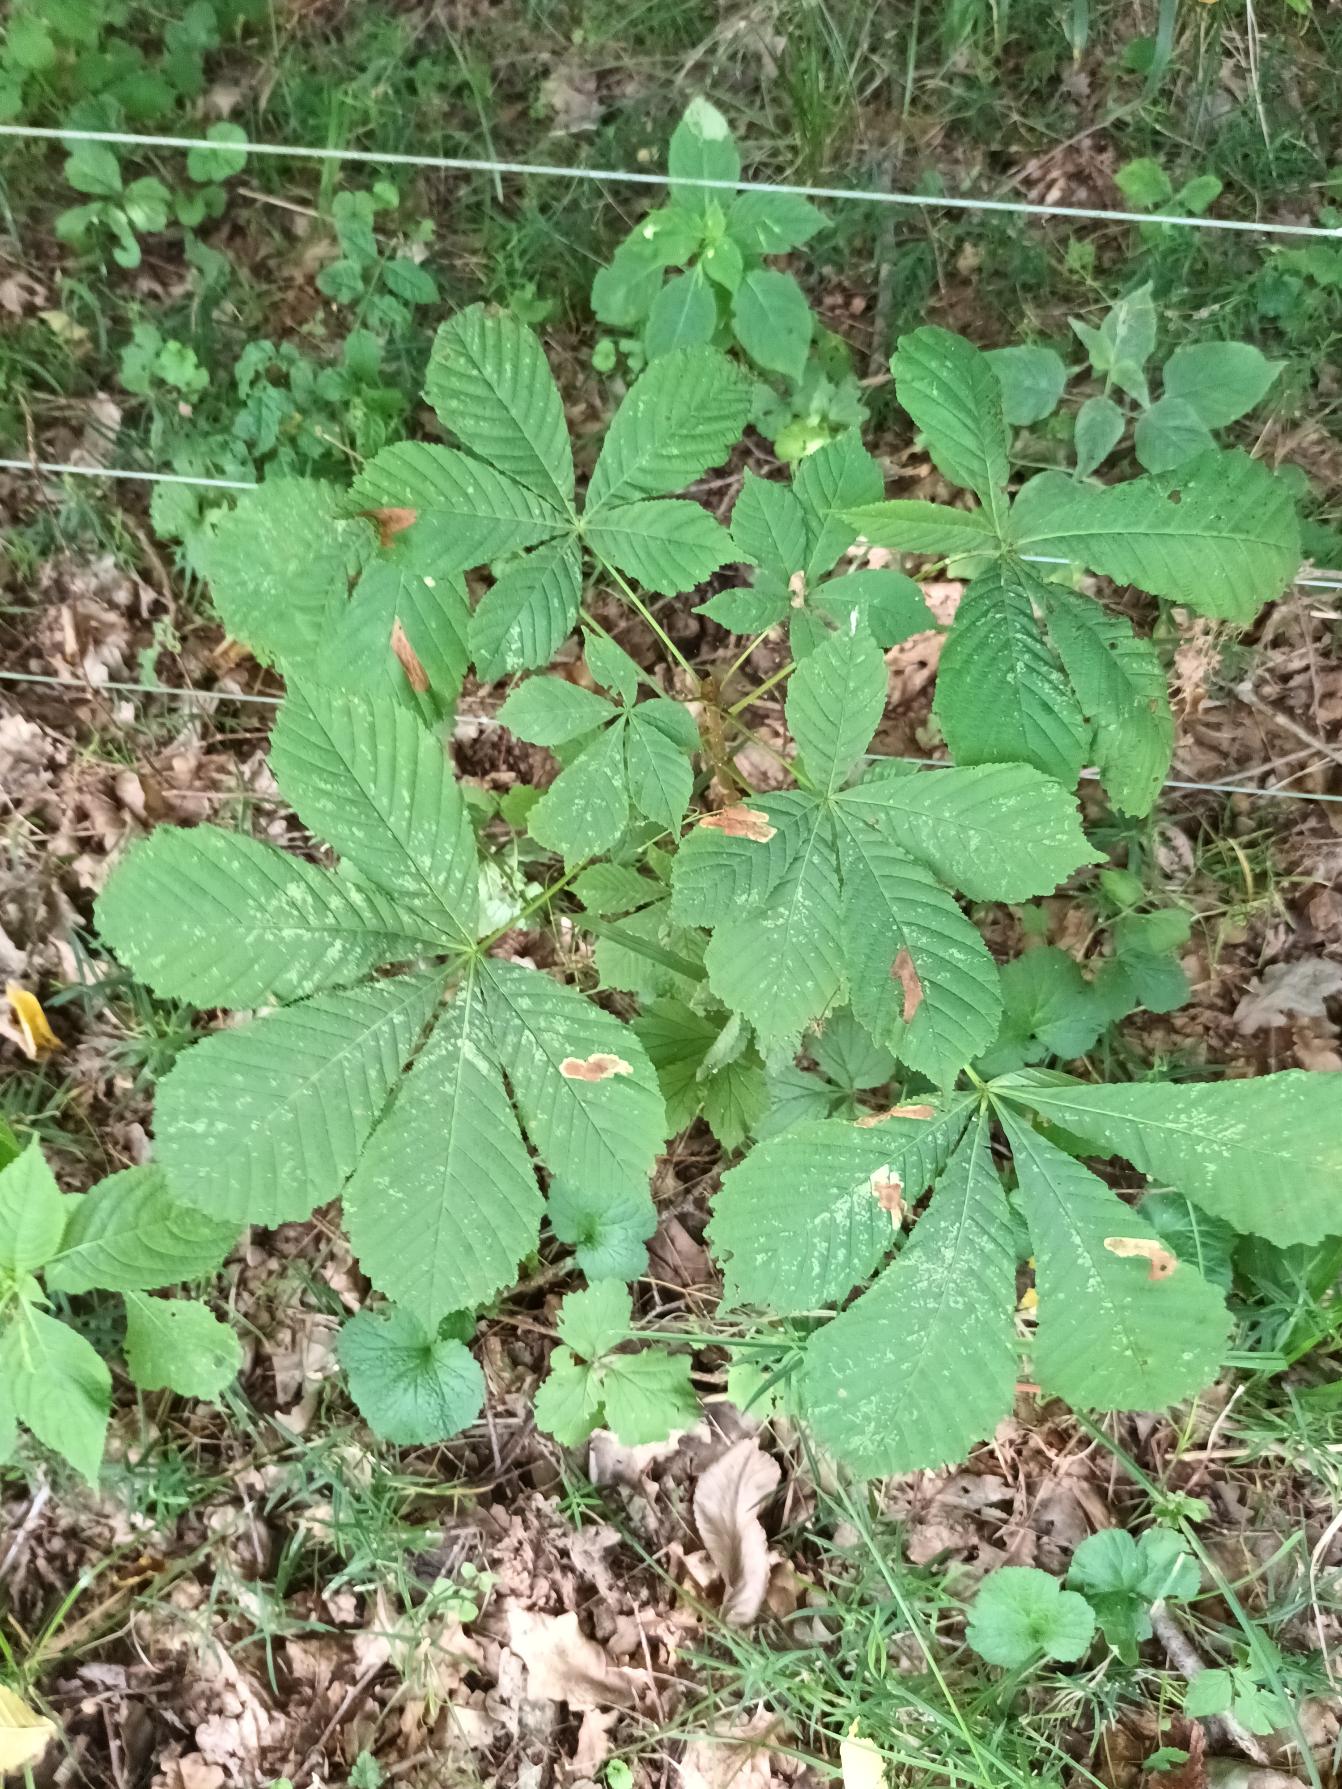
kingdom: Plantae
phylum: Tracheophyta
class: Magnoliopsida
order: Sapindales
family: Sapindaceae
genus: Aesculus
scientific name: Aesculus hippocastanum
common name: Hestekastanie
